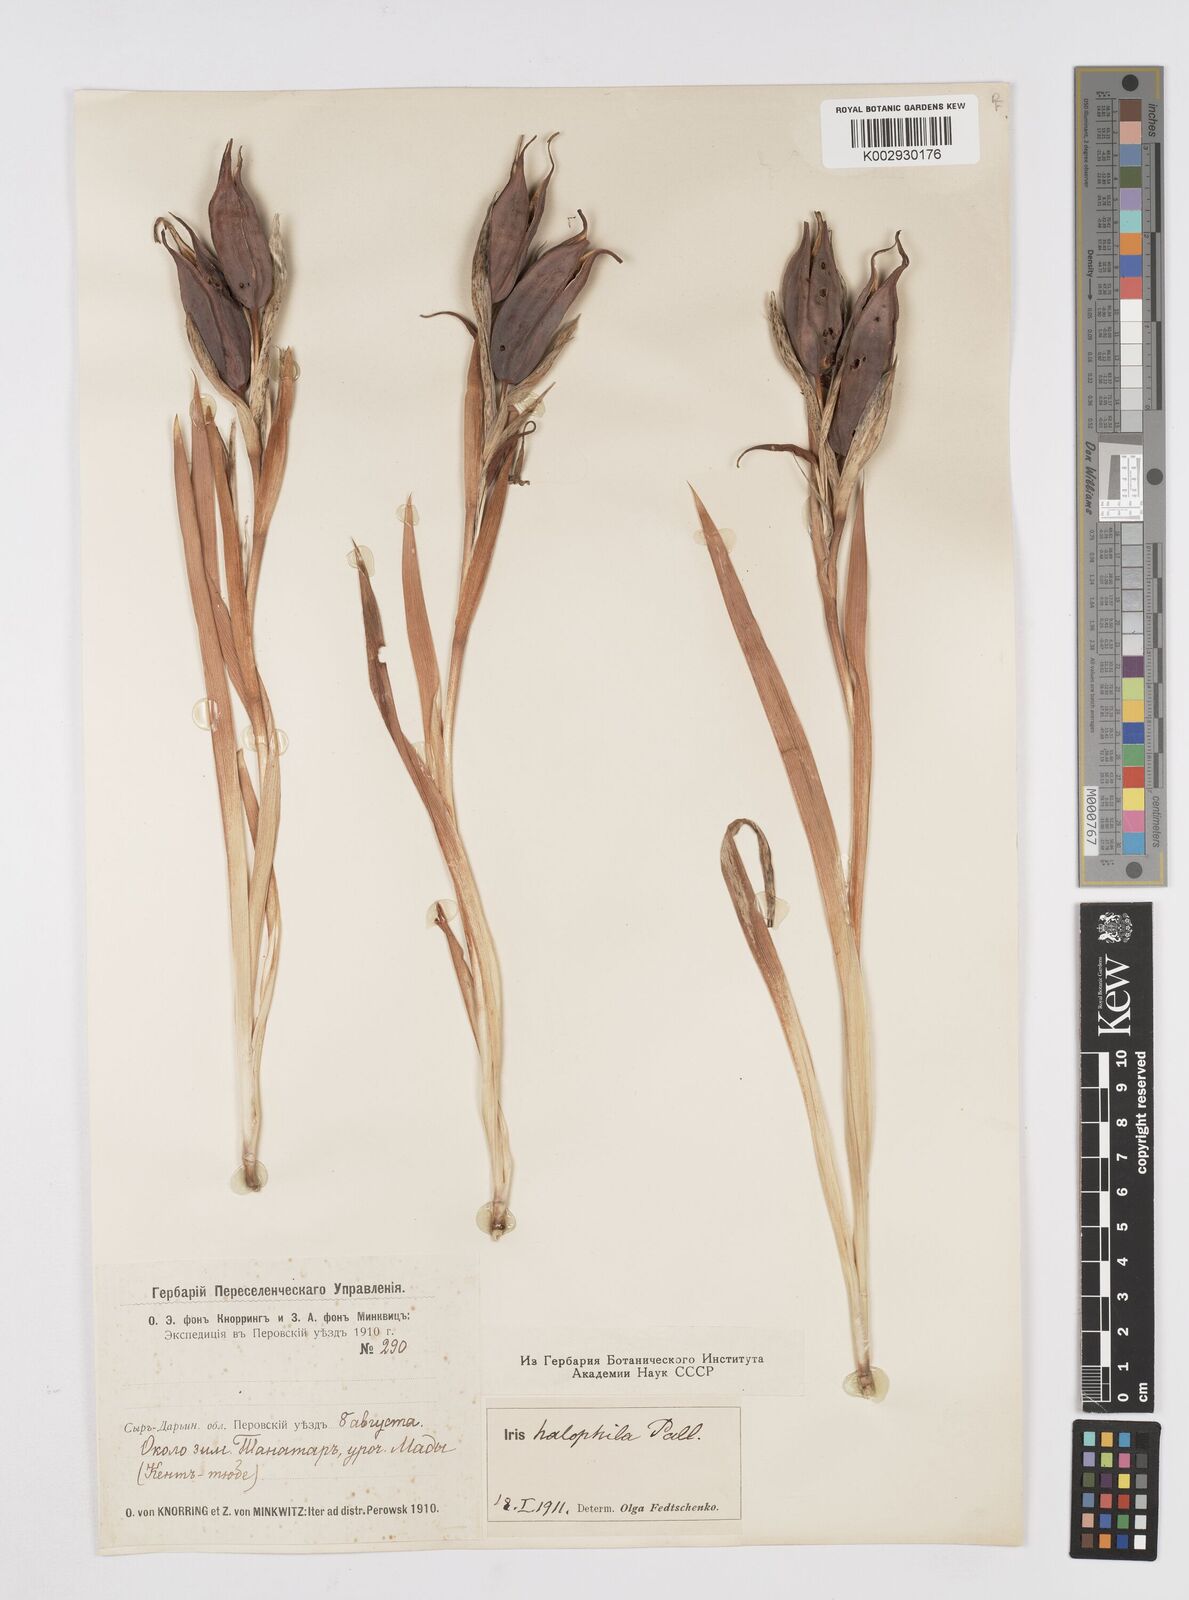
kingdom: Plantae
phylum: Tracheophyta
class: Liliopsida
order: Asparagales
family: Iridaceae
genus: Iris
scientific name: Iris halophila
